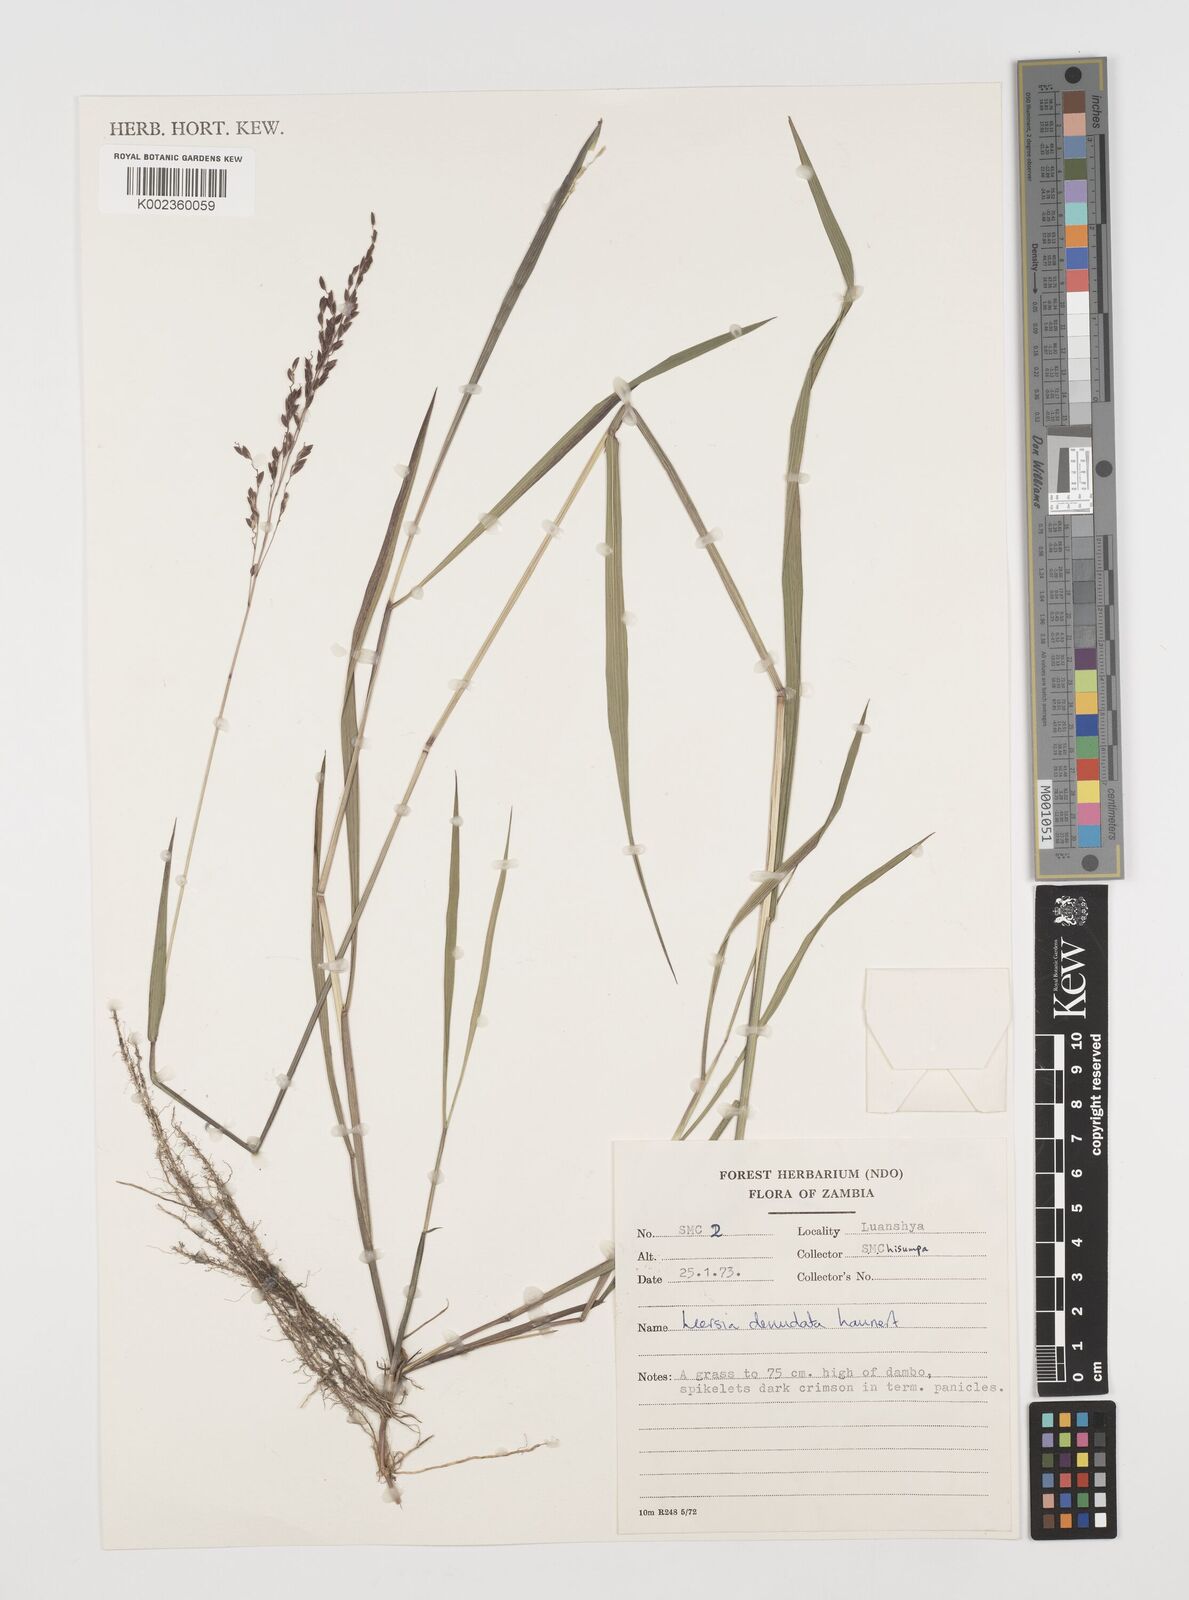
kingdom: Plantae
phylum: Tracheophyta
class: Liliopsida
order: Poales
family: Poaceae
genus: Leersia
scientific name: Leersia denudata
